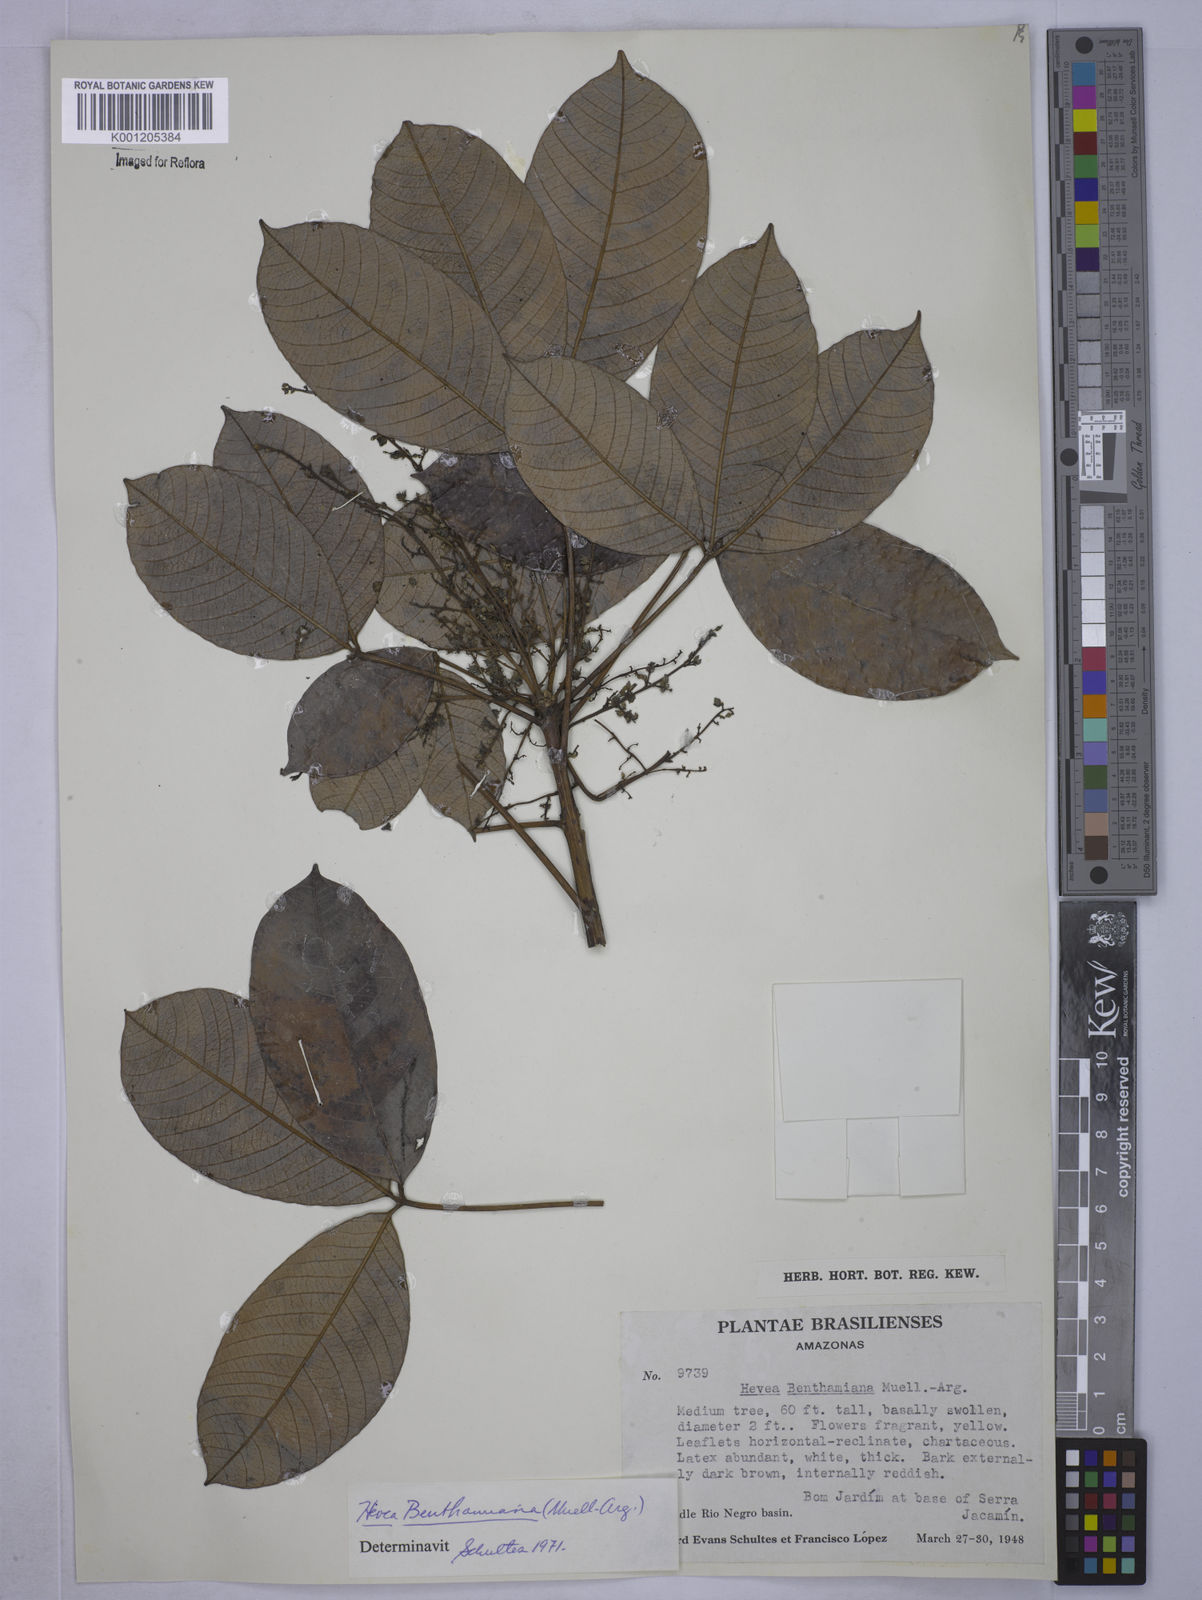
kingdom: Plantae
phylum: Tracheophyta
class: Magnoliopsida
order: Malpighiales
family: Euphorbiaceae
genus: Hevea
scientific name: Hevea
